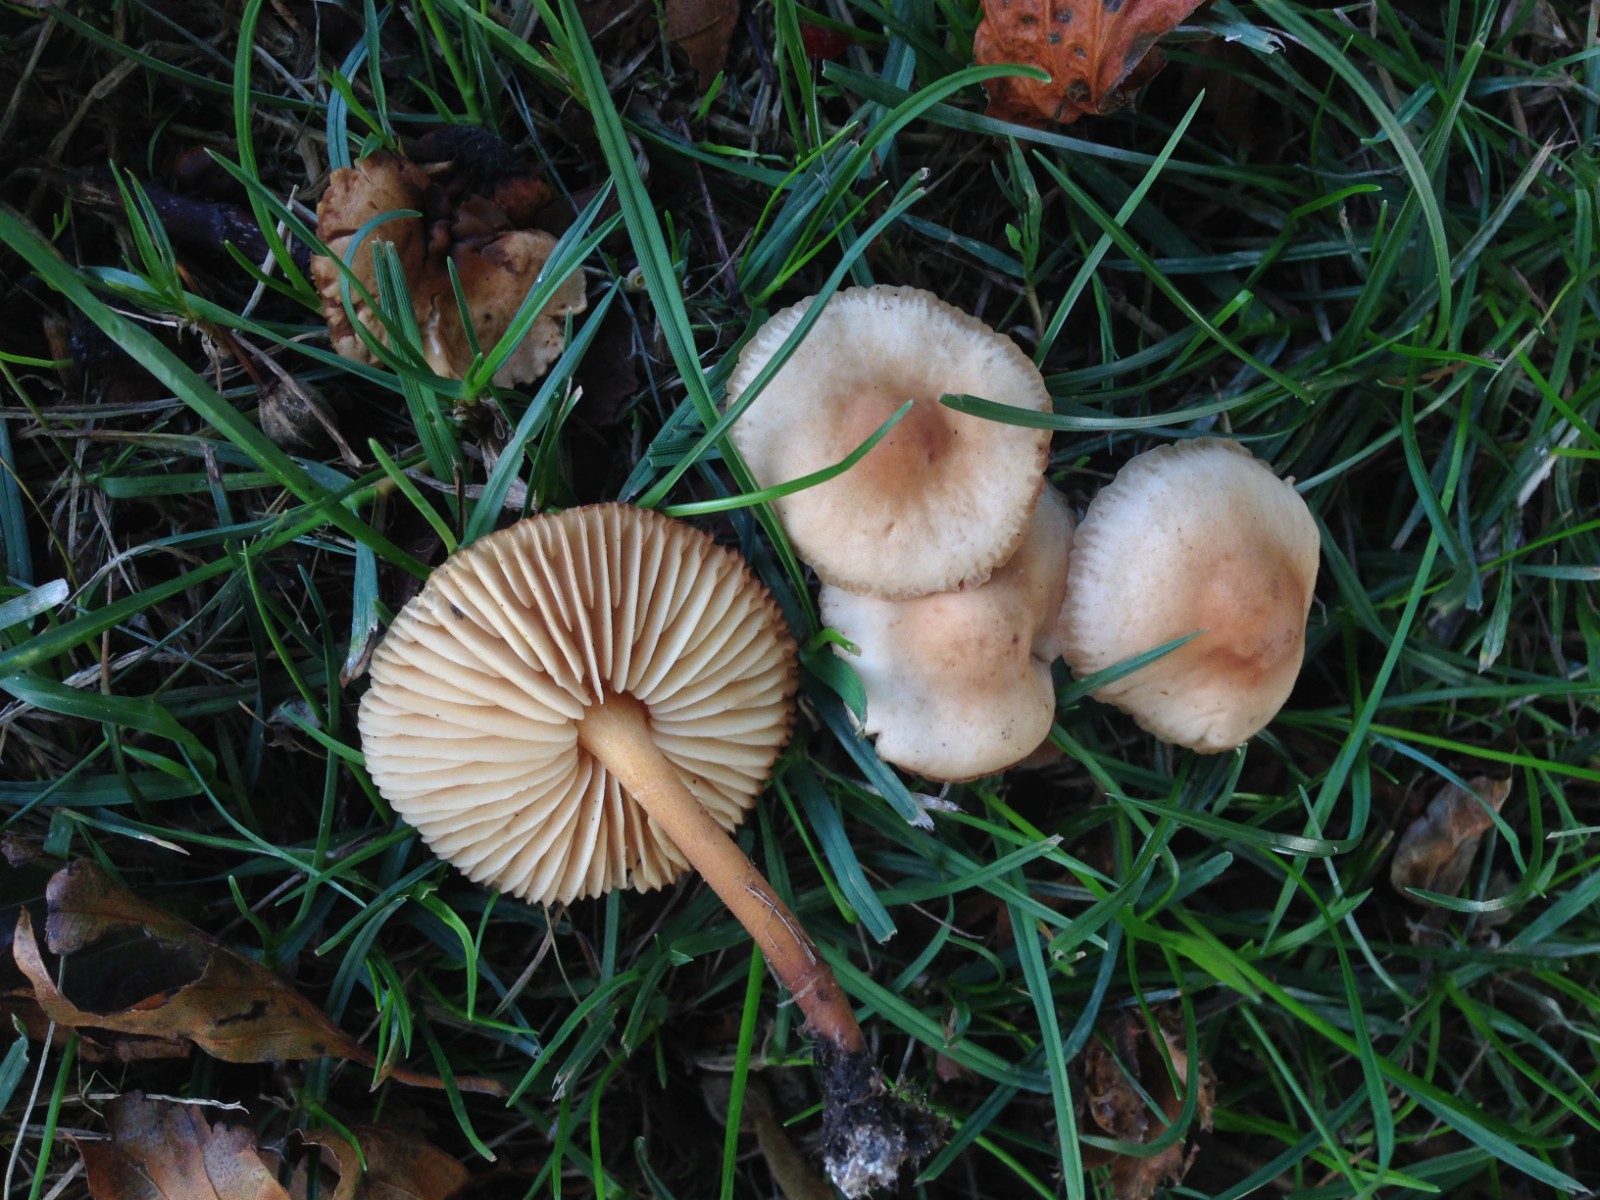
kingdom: Fungi
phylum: Basidiomycota
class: Agaricomycetes
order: Agaricales
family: Marasmiaceae
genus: Marasmius
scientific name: Marasmius oreades
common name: elledans-bruskhat
